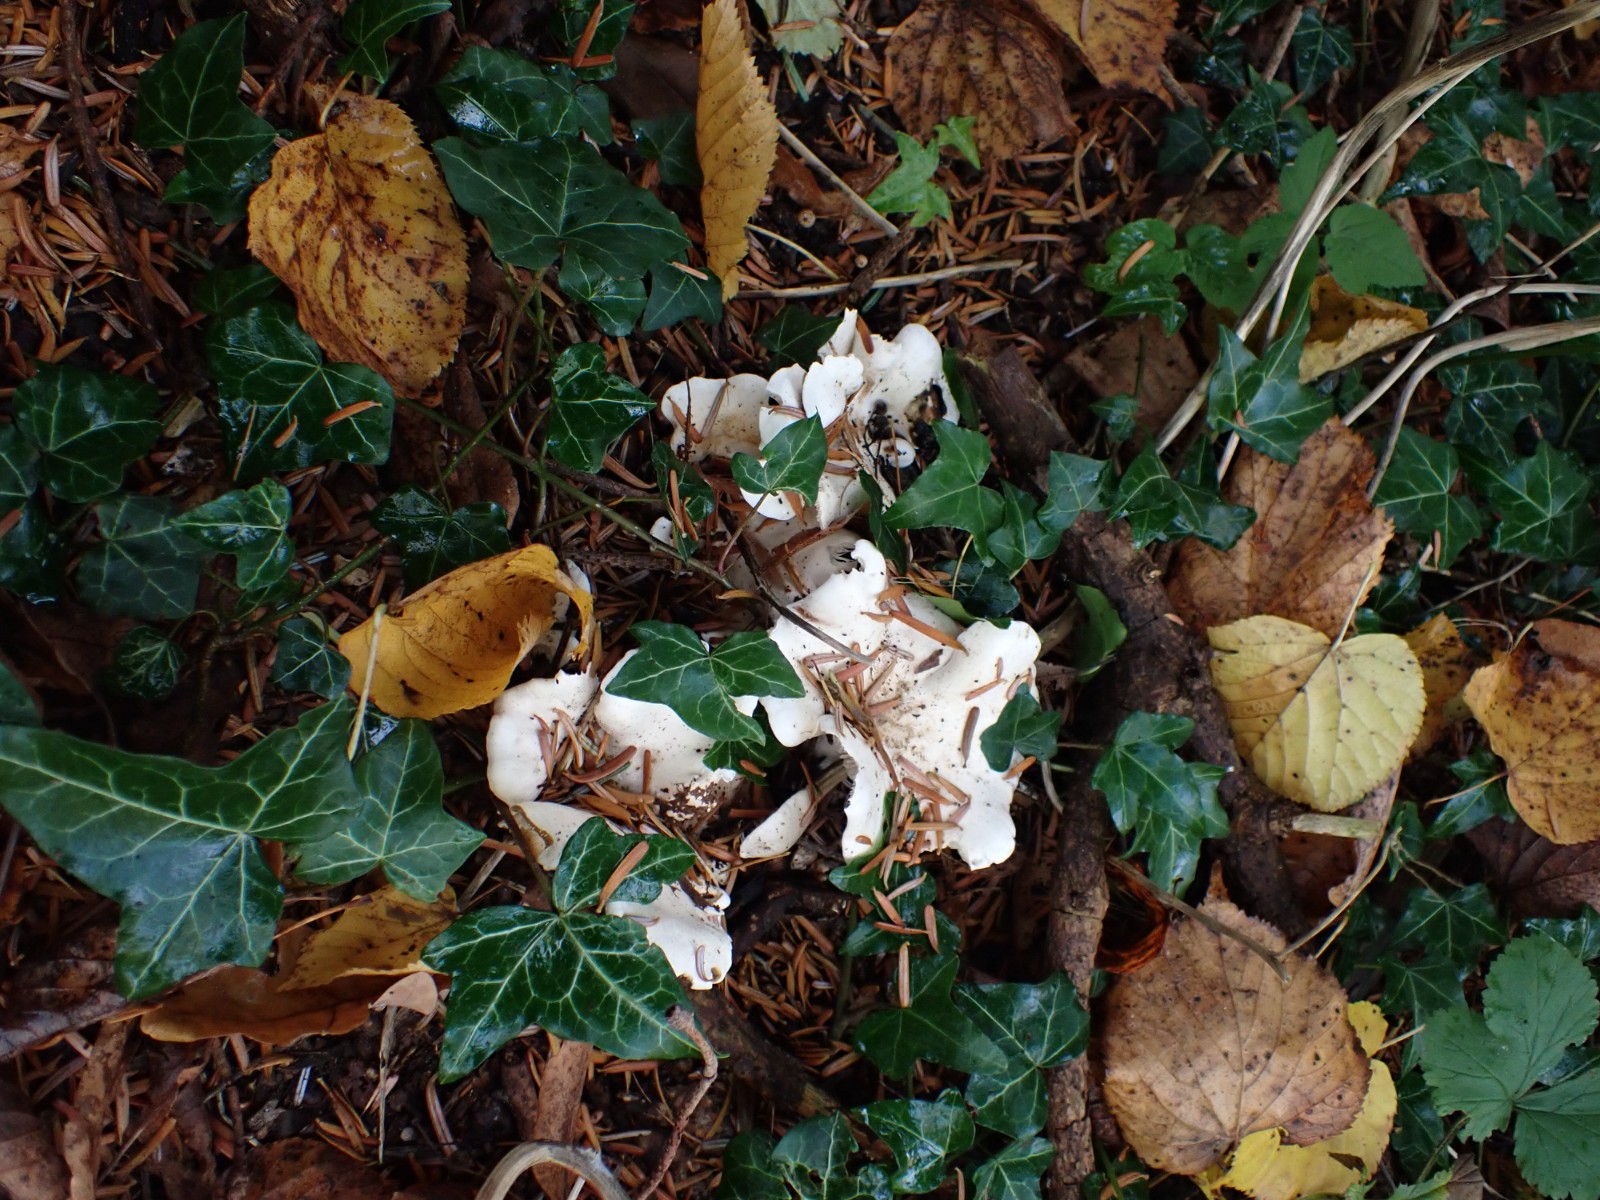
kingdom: Fungi
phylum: Basidiomycota
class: Agaricomycetes
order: Agaricales
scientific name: Agaricales
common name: champignonordenen
